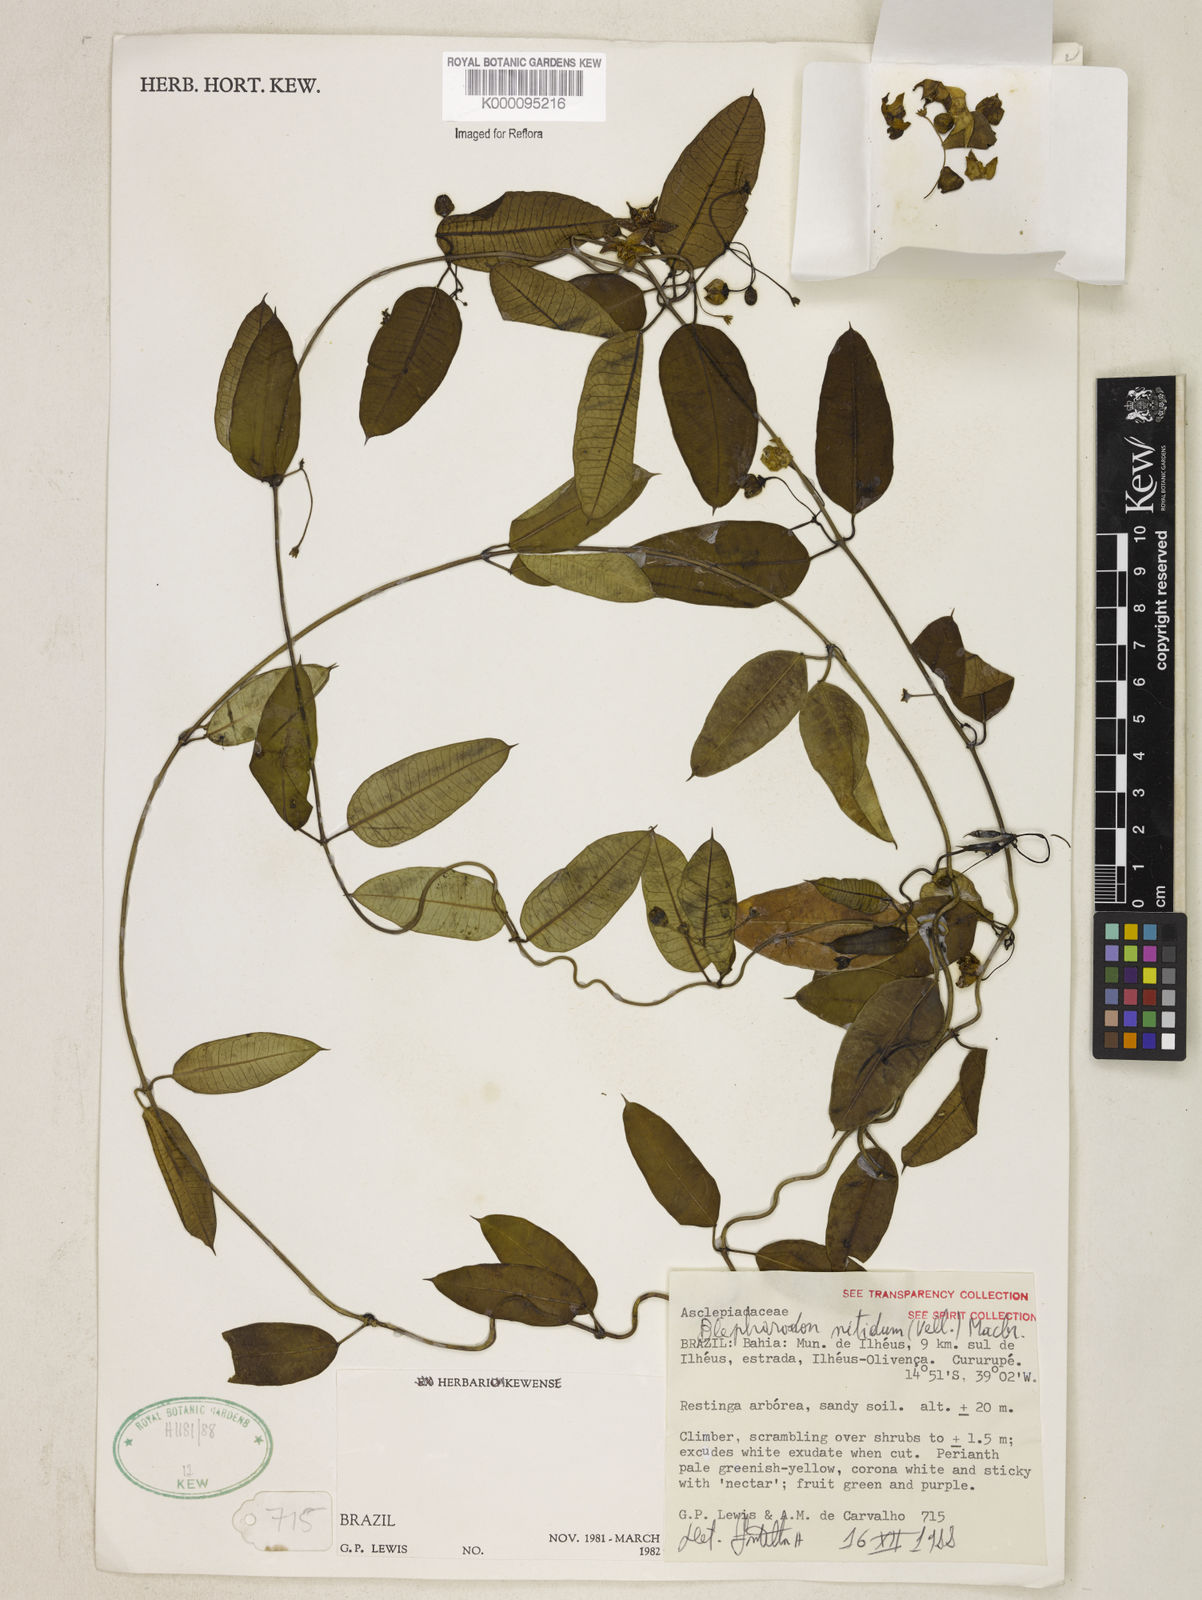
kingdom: Plantae
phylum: Tracheophyta
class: Magnoliopsida
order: Gentianales
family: Apocynaceae
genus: Blepharodon
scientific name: Blepharodon pictum
